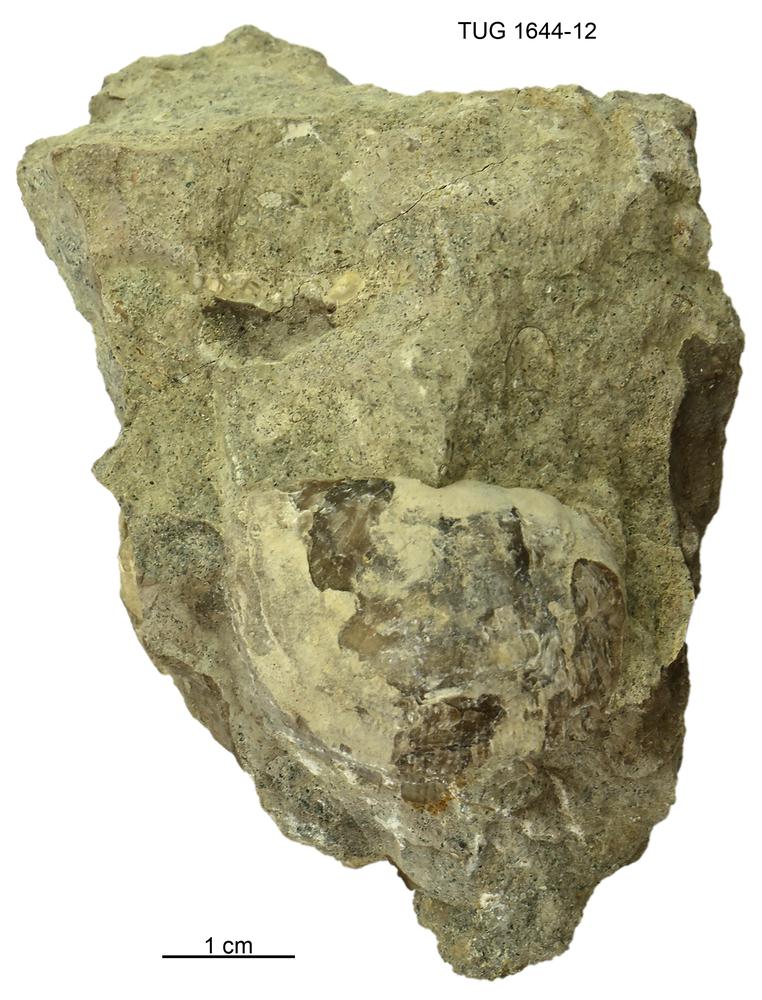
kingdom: Animalia
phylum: Brachiopoda
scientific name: Brachiopoda
